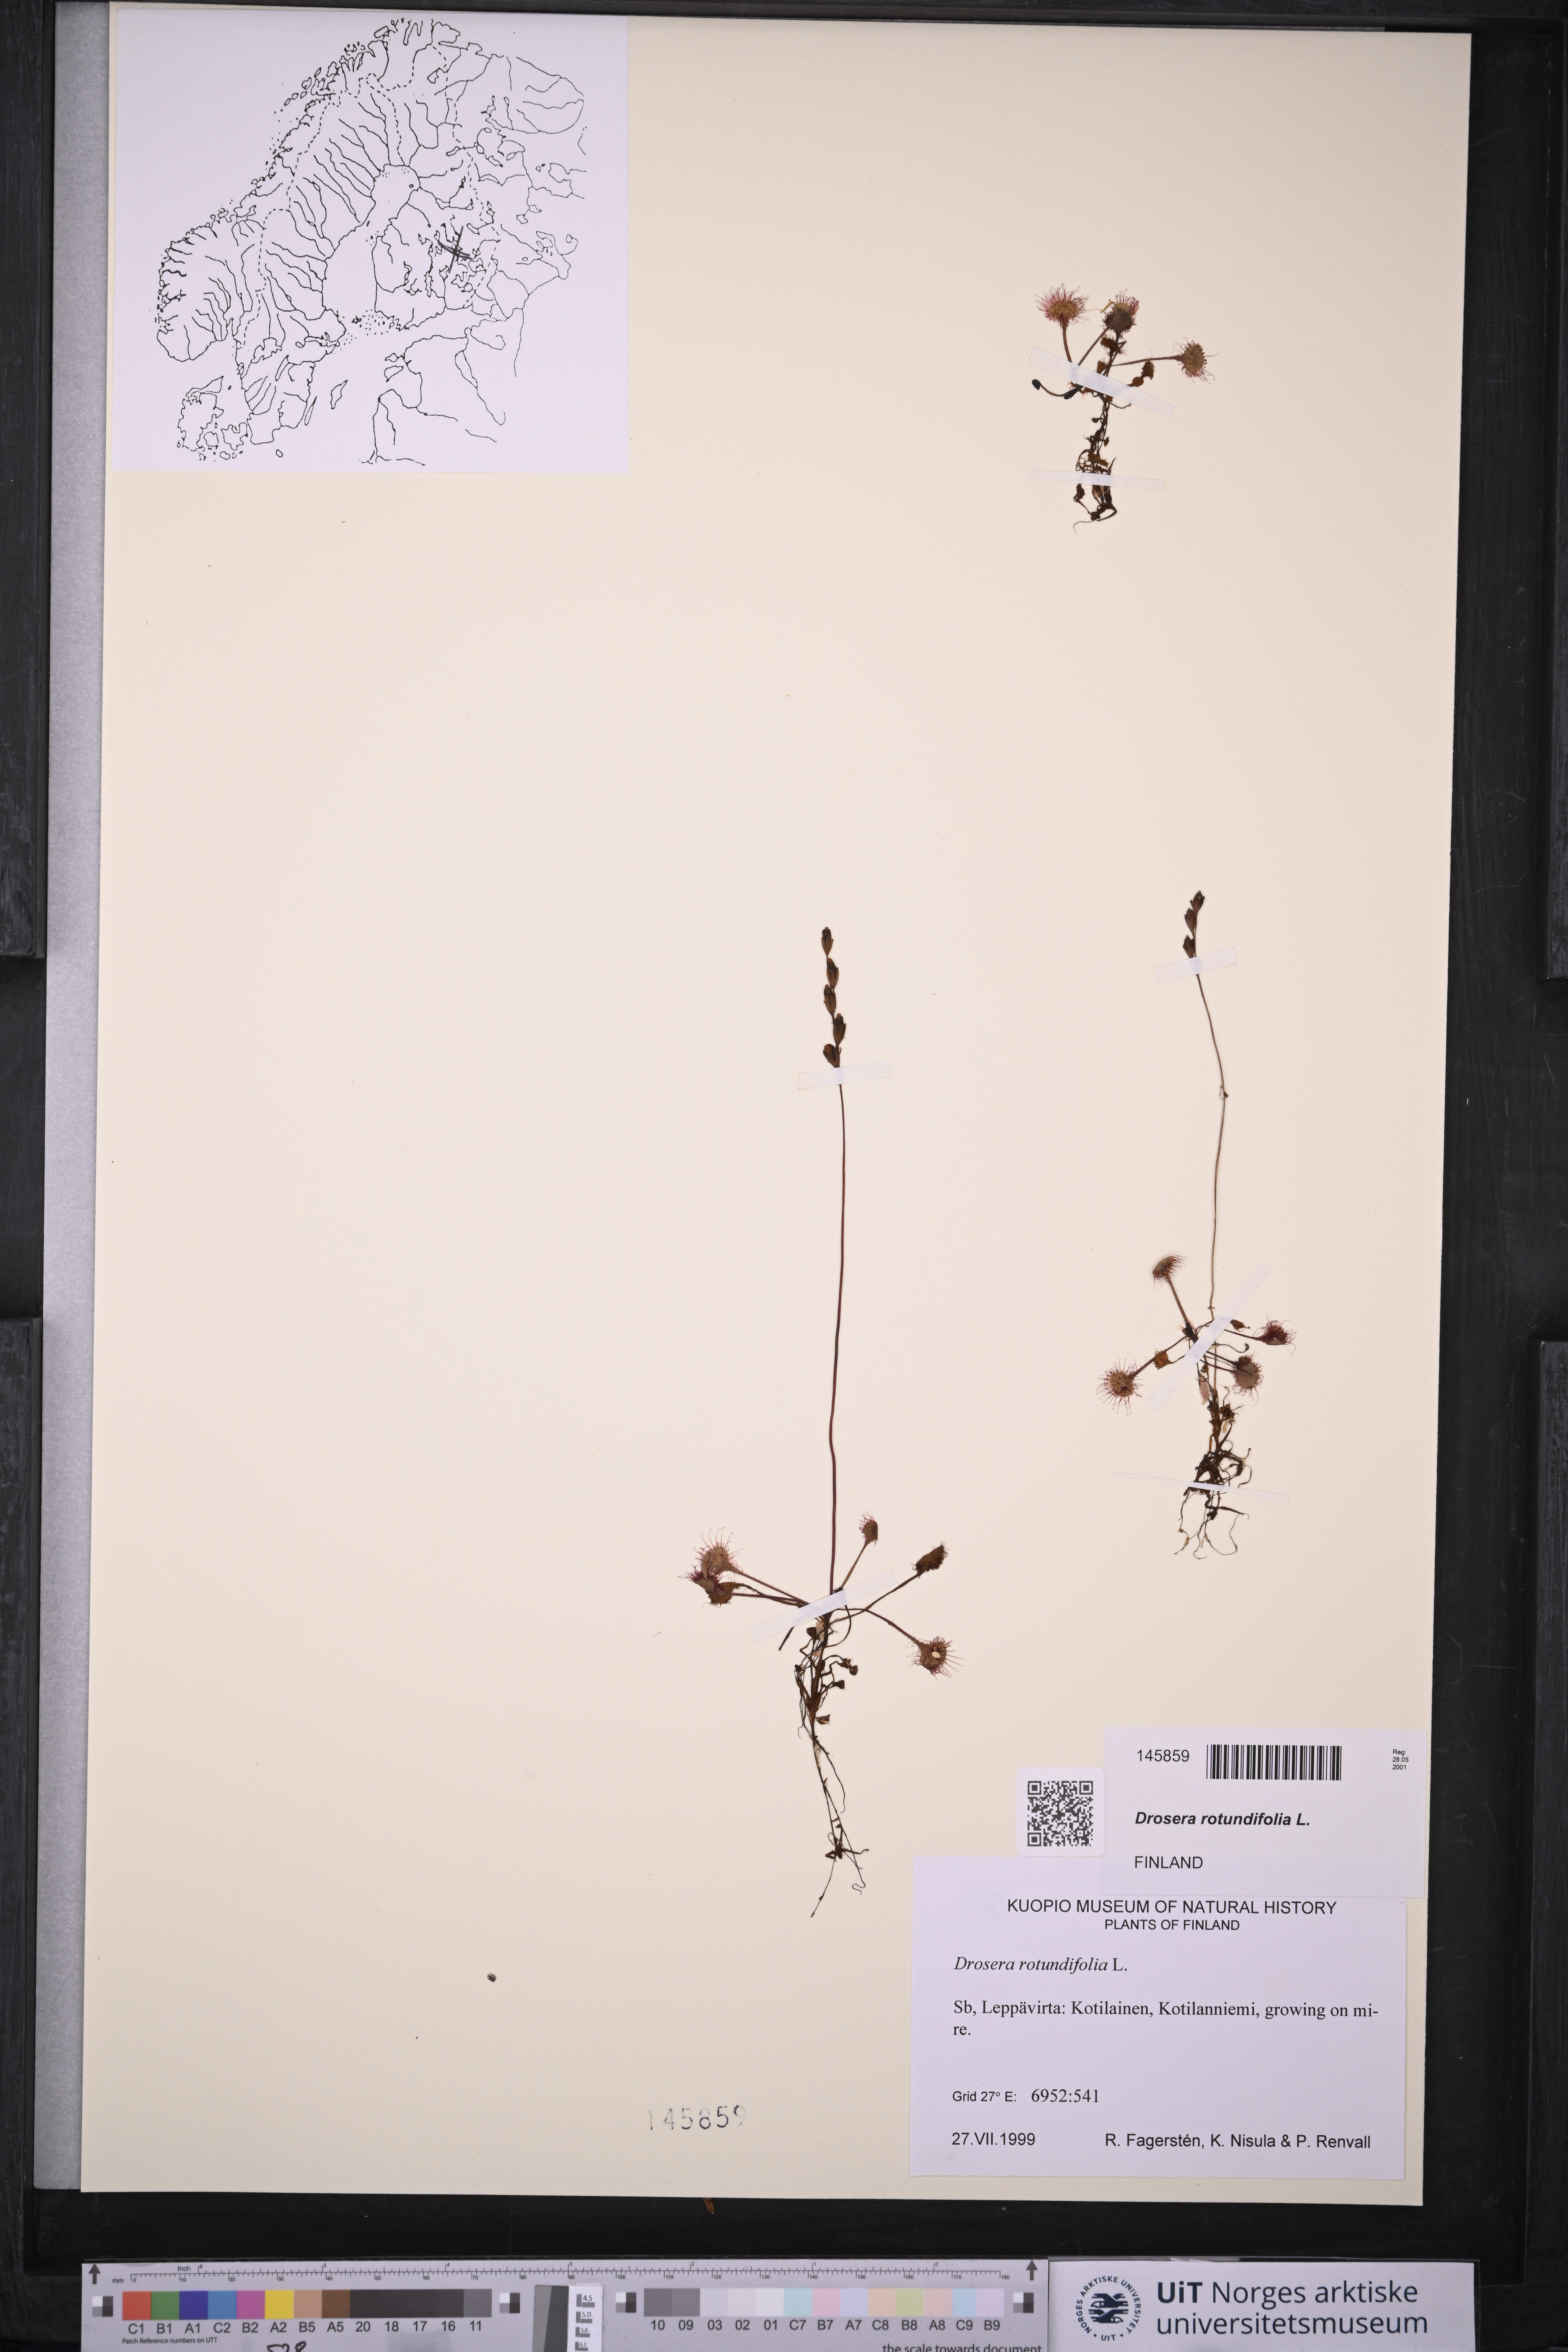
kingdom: Plantae
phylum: Tracheophyta
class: Magnoliopsida
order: Caryophyllales
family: Droseraceae
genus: Drosera
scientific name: Drosera rotundifolia
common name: Round-leaved sundew
